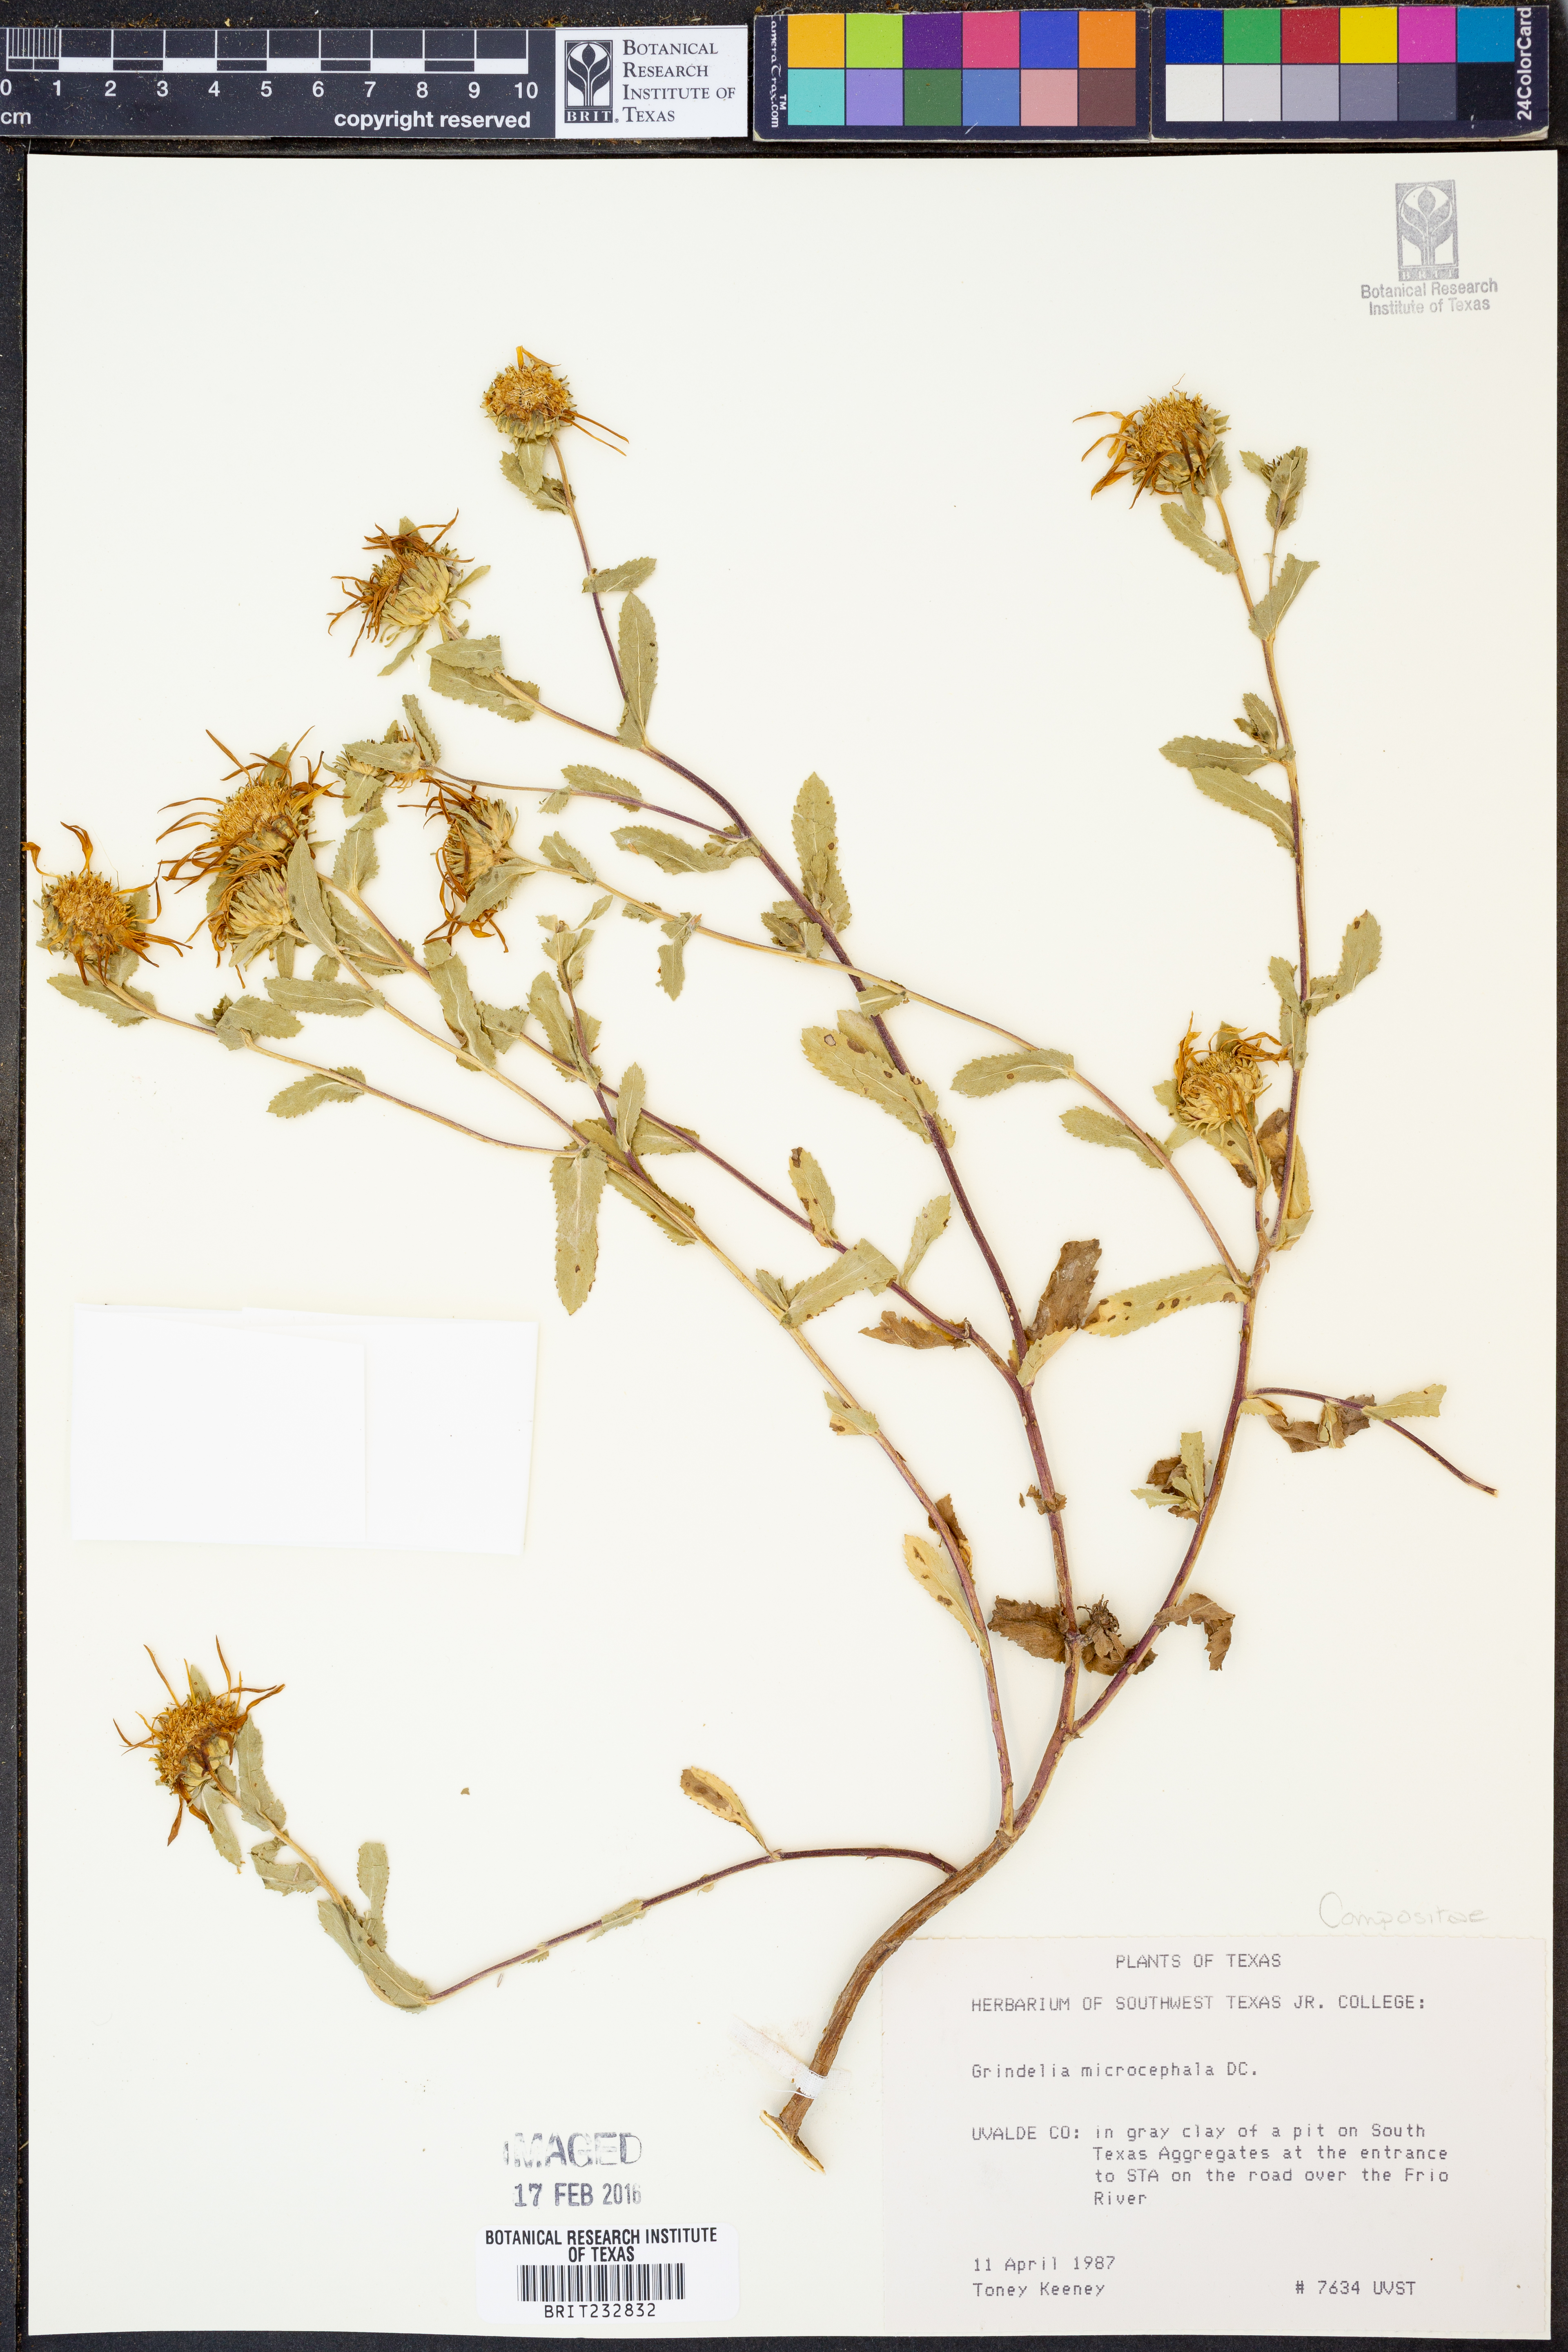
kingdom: Plantae
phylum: Tracheophyta
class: Magnoliopsida
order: Asterales
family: Asteraceae
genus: Grindelia
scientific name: Grindelia arizonica
